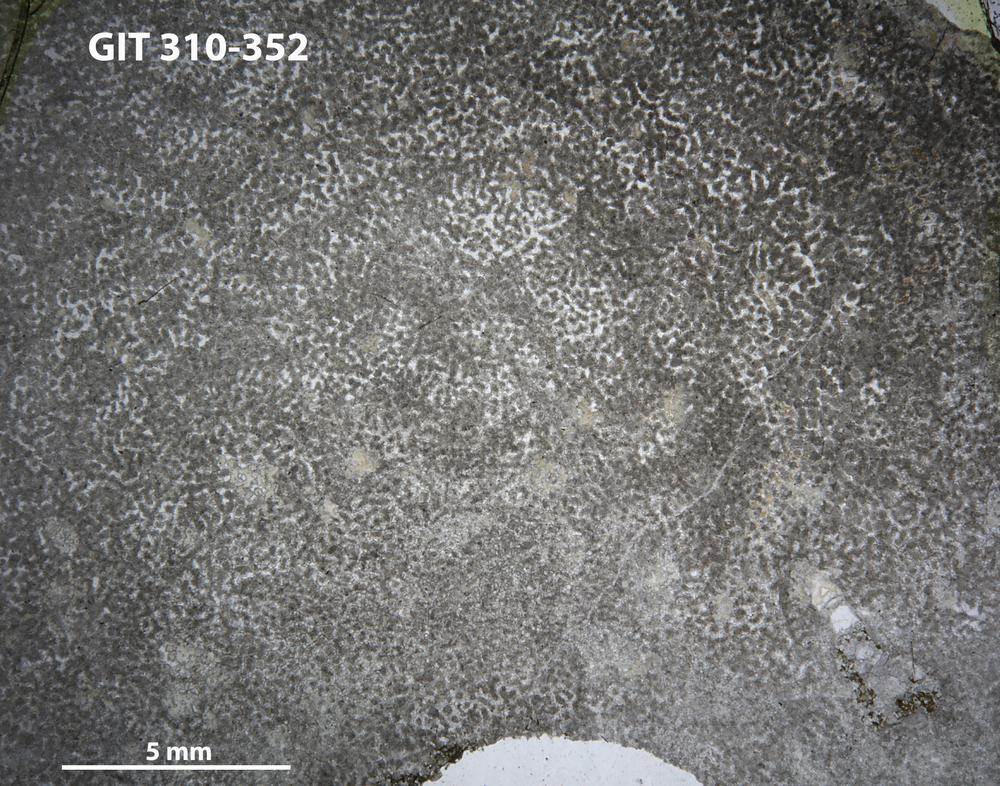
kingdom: Animalia
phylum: Porifera
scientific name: Porifera
